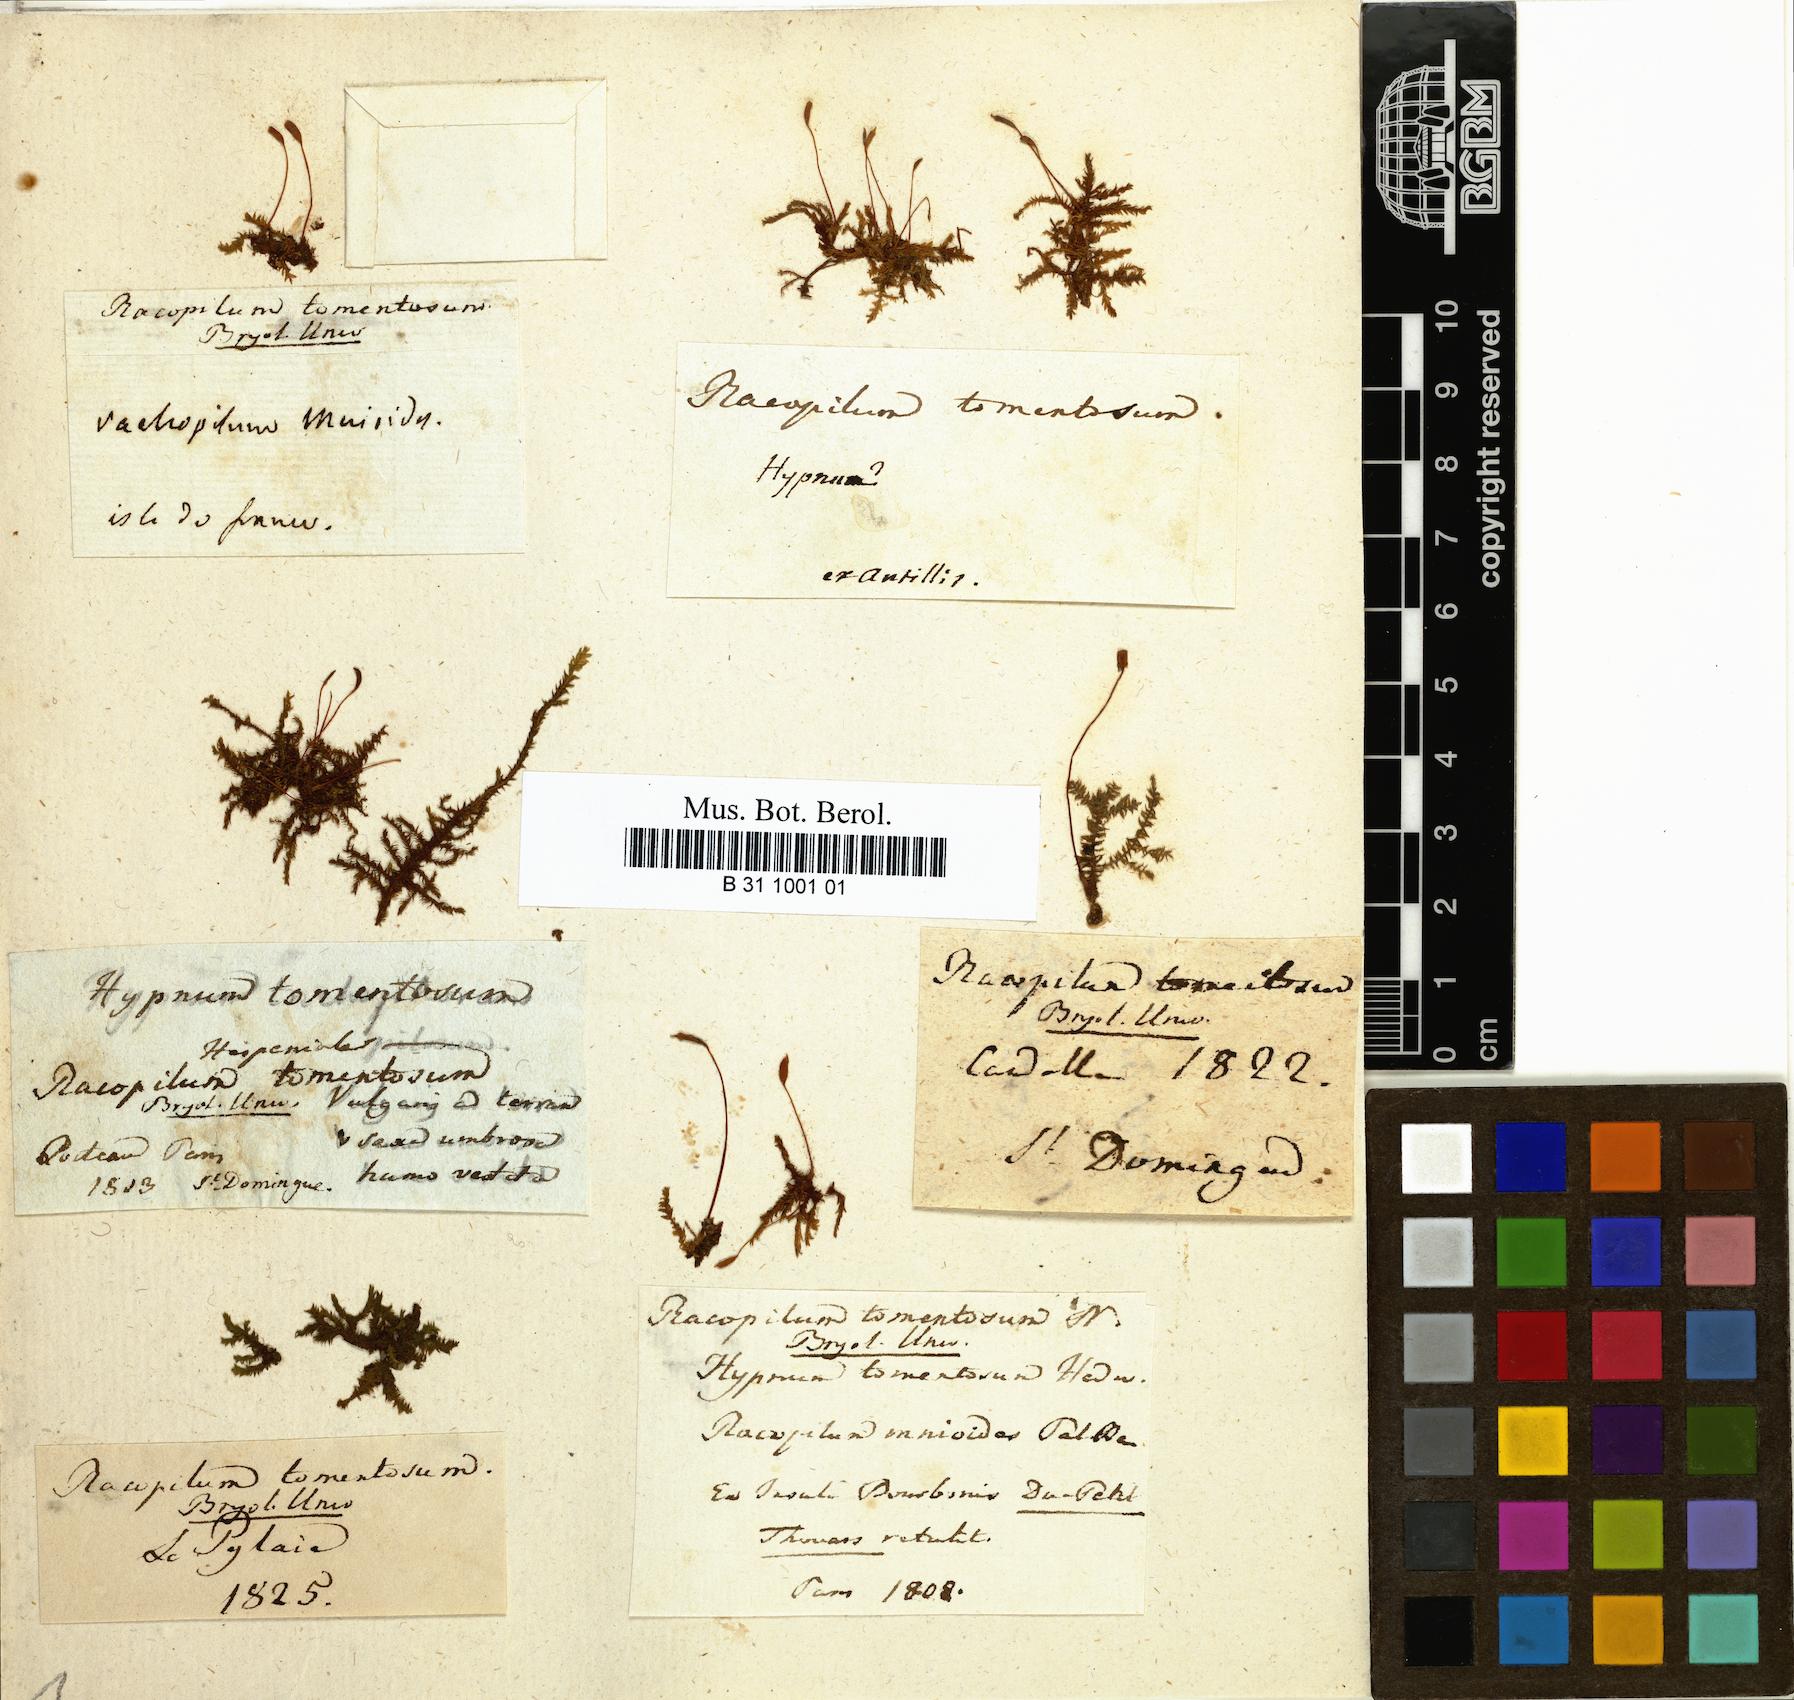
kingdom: Plantae
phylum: Bryophyta
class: Bryopsida
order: Hypnodendrales
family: Racopilaceae
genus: Racopilum
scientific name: Racopilum tomentosum
